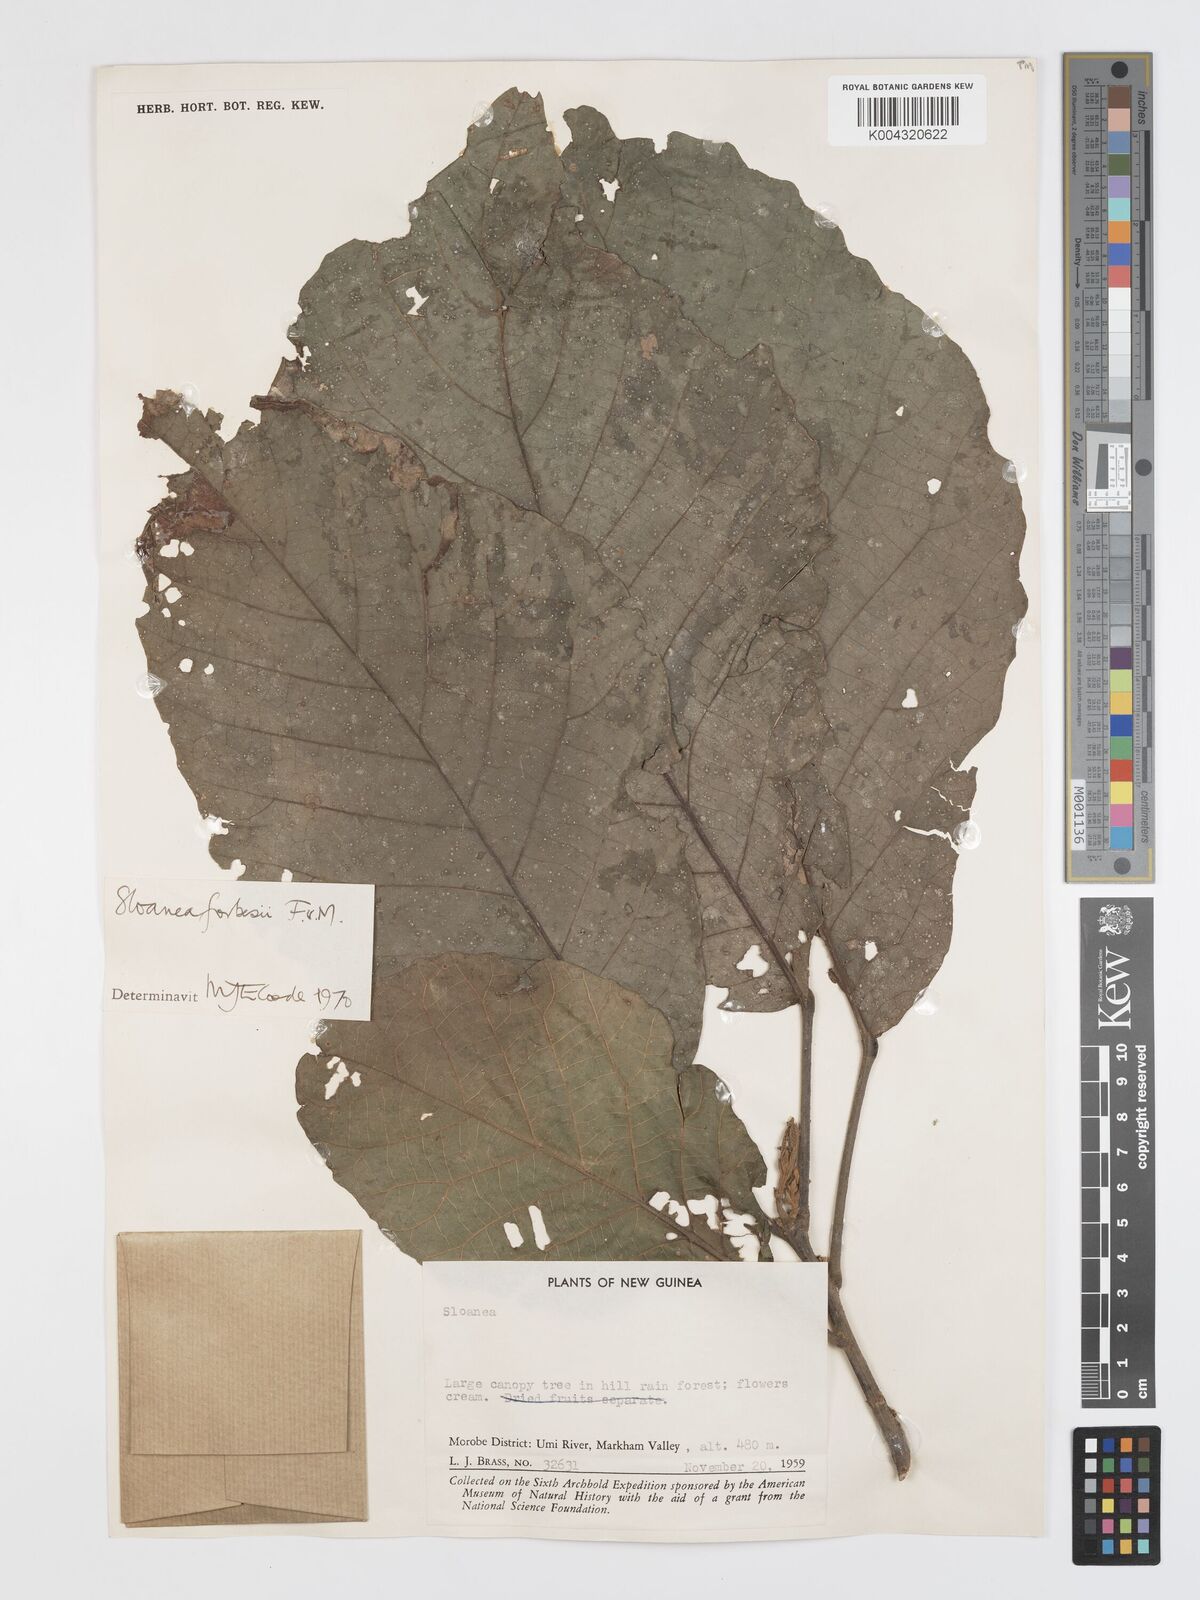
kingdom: Plantae
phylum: Tracheophyta
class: Magnoliopsida
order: Oxalidales
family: Elaeocarpaceae
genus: Sloanea
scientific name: Sloanea forbesii
